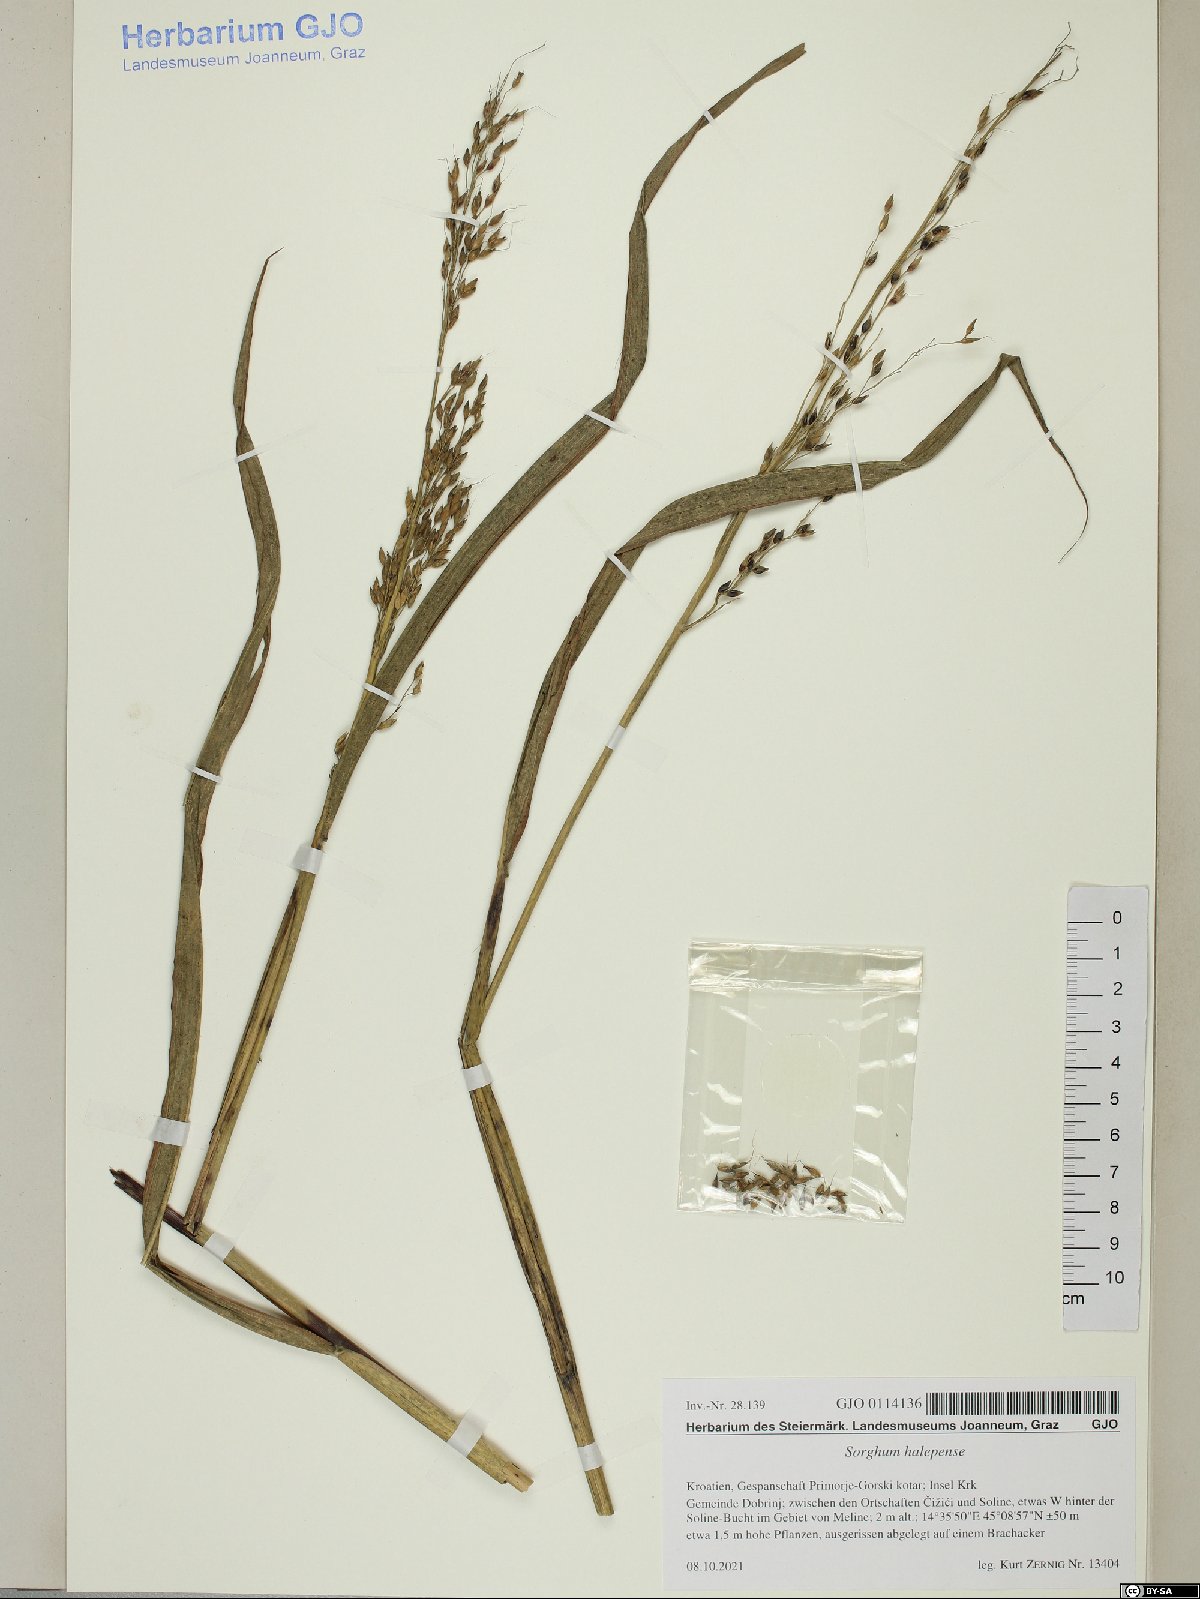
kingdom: Plantae
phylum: Tracheophyta
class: Liliopsida
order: Poales
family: Poaceae
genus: Sorghum
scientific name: Sorghum halepense
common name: Johnson-grass
